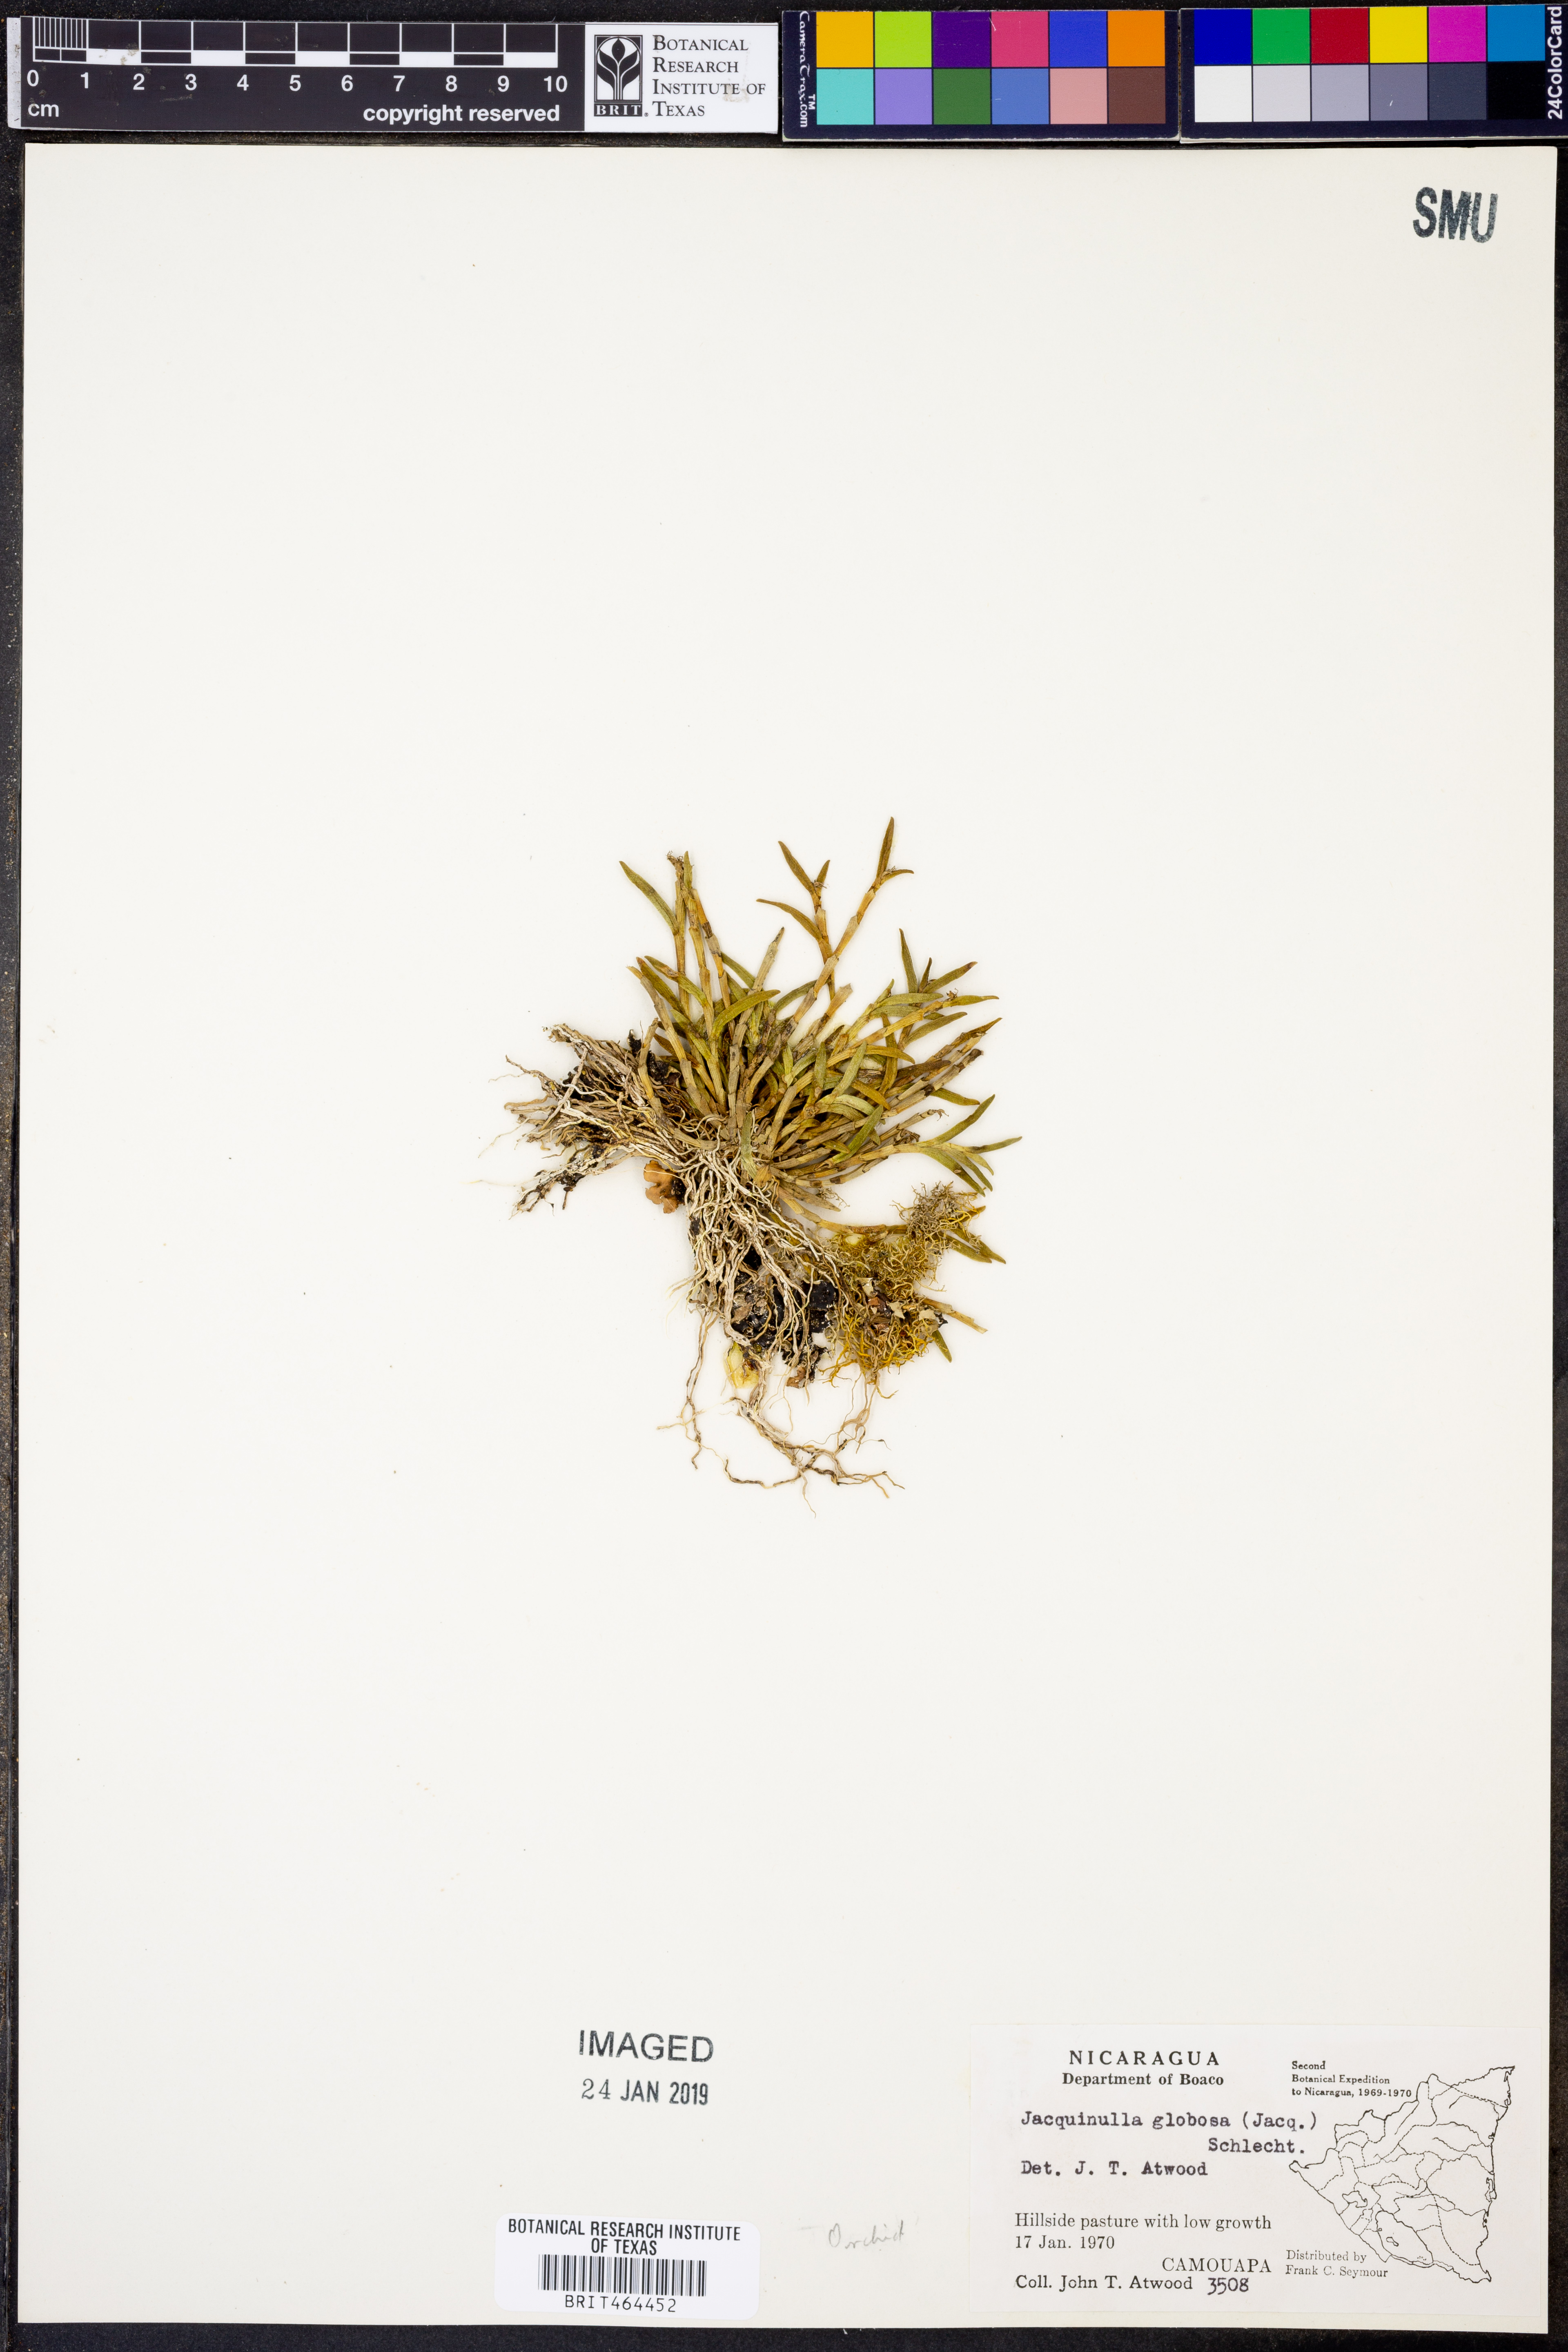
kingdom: Plantae
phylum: Tracheophyta
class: Liliopsida
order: Asparagales
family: Orchidaceae
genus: Jacquiniella
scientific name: Jacquiniella globosa
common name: Redblotch tufted orchid
